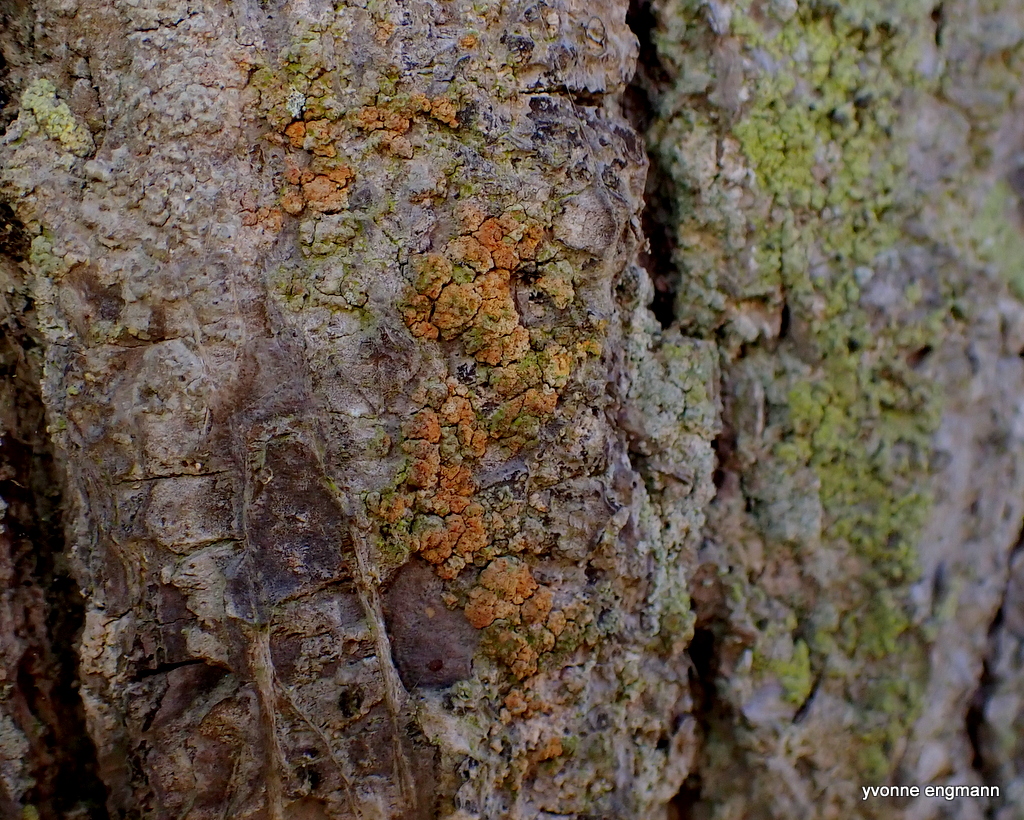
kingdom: Fungi
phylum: Ascomycota
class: Coniocybomycetes
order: Coniocybales
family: Coniocybaceae
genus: Chaenotheca
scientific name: Chaenotheca ferruginea
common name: rustbrun knappenålslav
